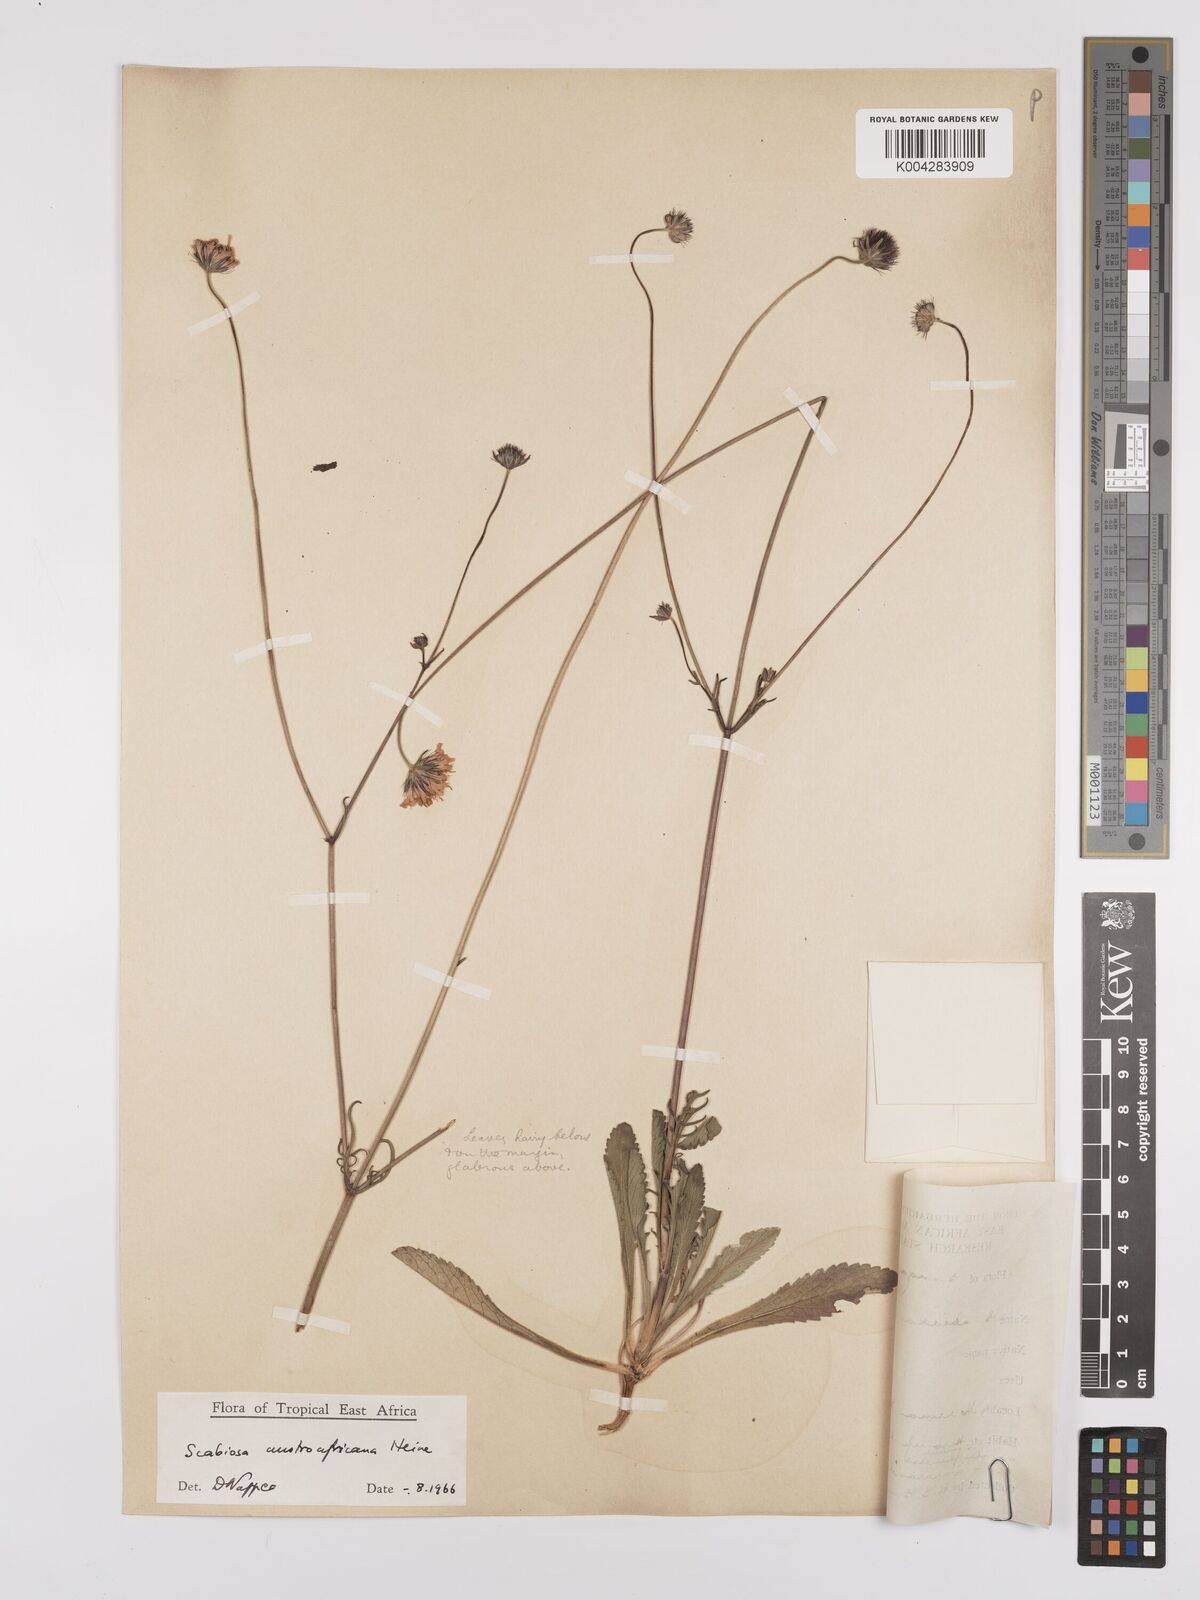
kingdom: Plantae
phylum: Tracheophyta
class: Magnoliopsida
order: Dipsacales
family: Caprifoliaceae
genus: Scabiosa
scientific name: Scabiosa austroafricana
